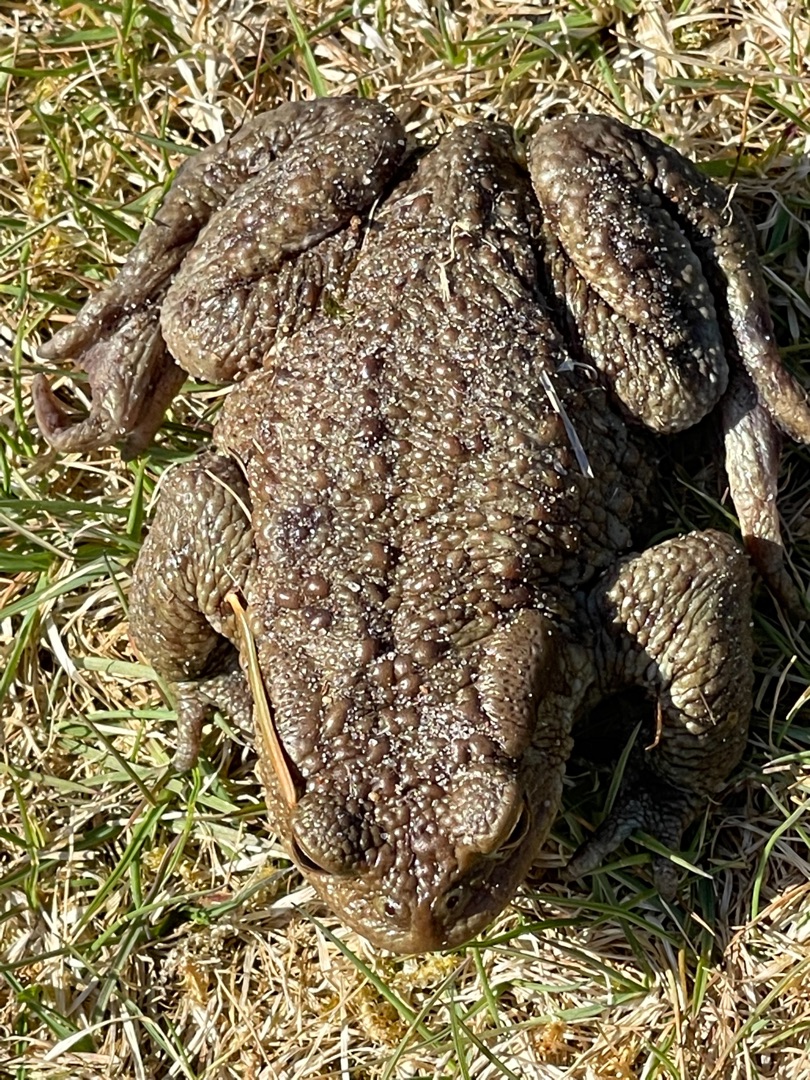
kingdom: Animalia
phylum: Chordata
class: Amphibia
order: Anura
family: Bufonidae
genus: Bufo
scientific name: Bufo bufo
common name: Skrubtudse
